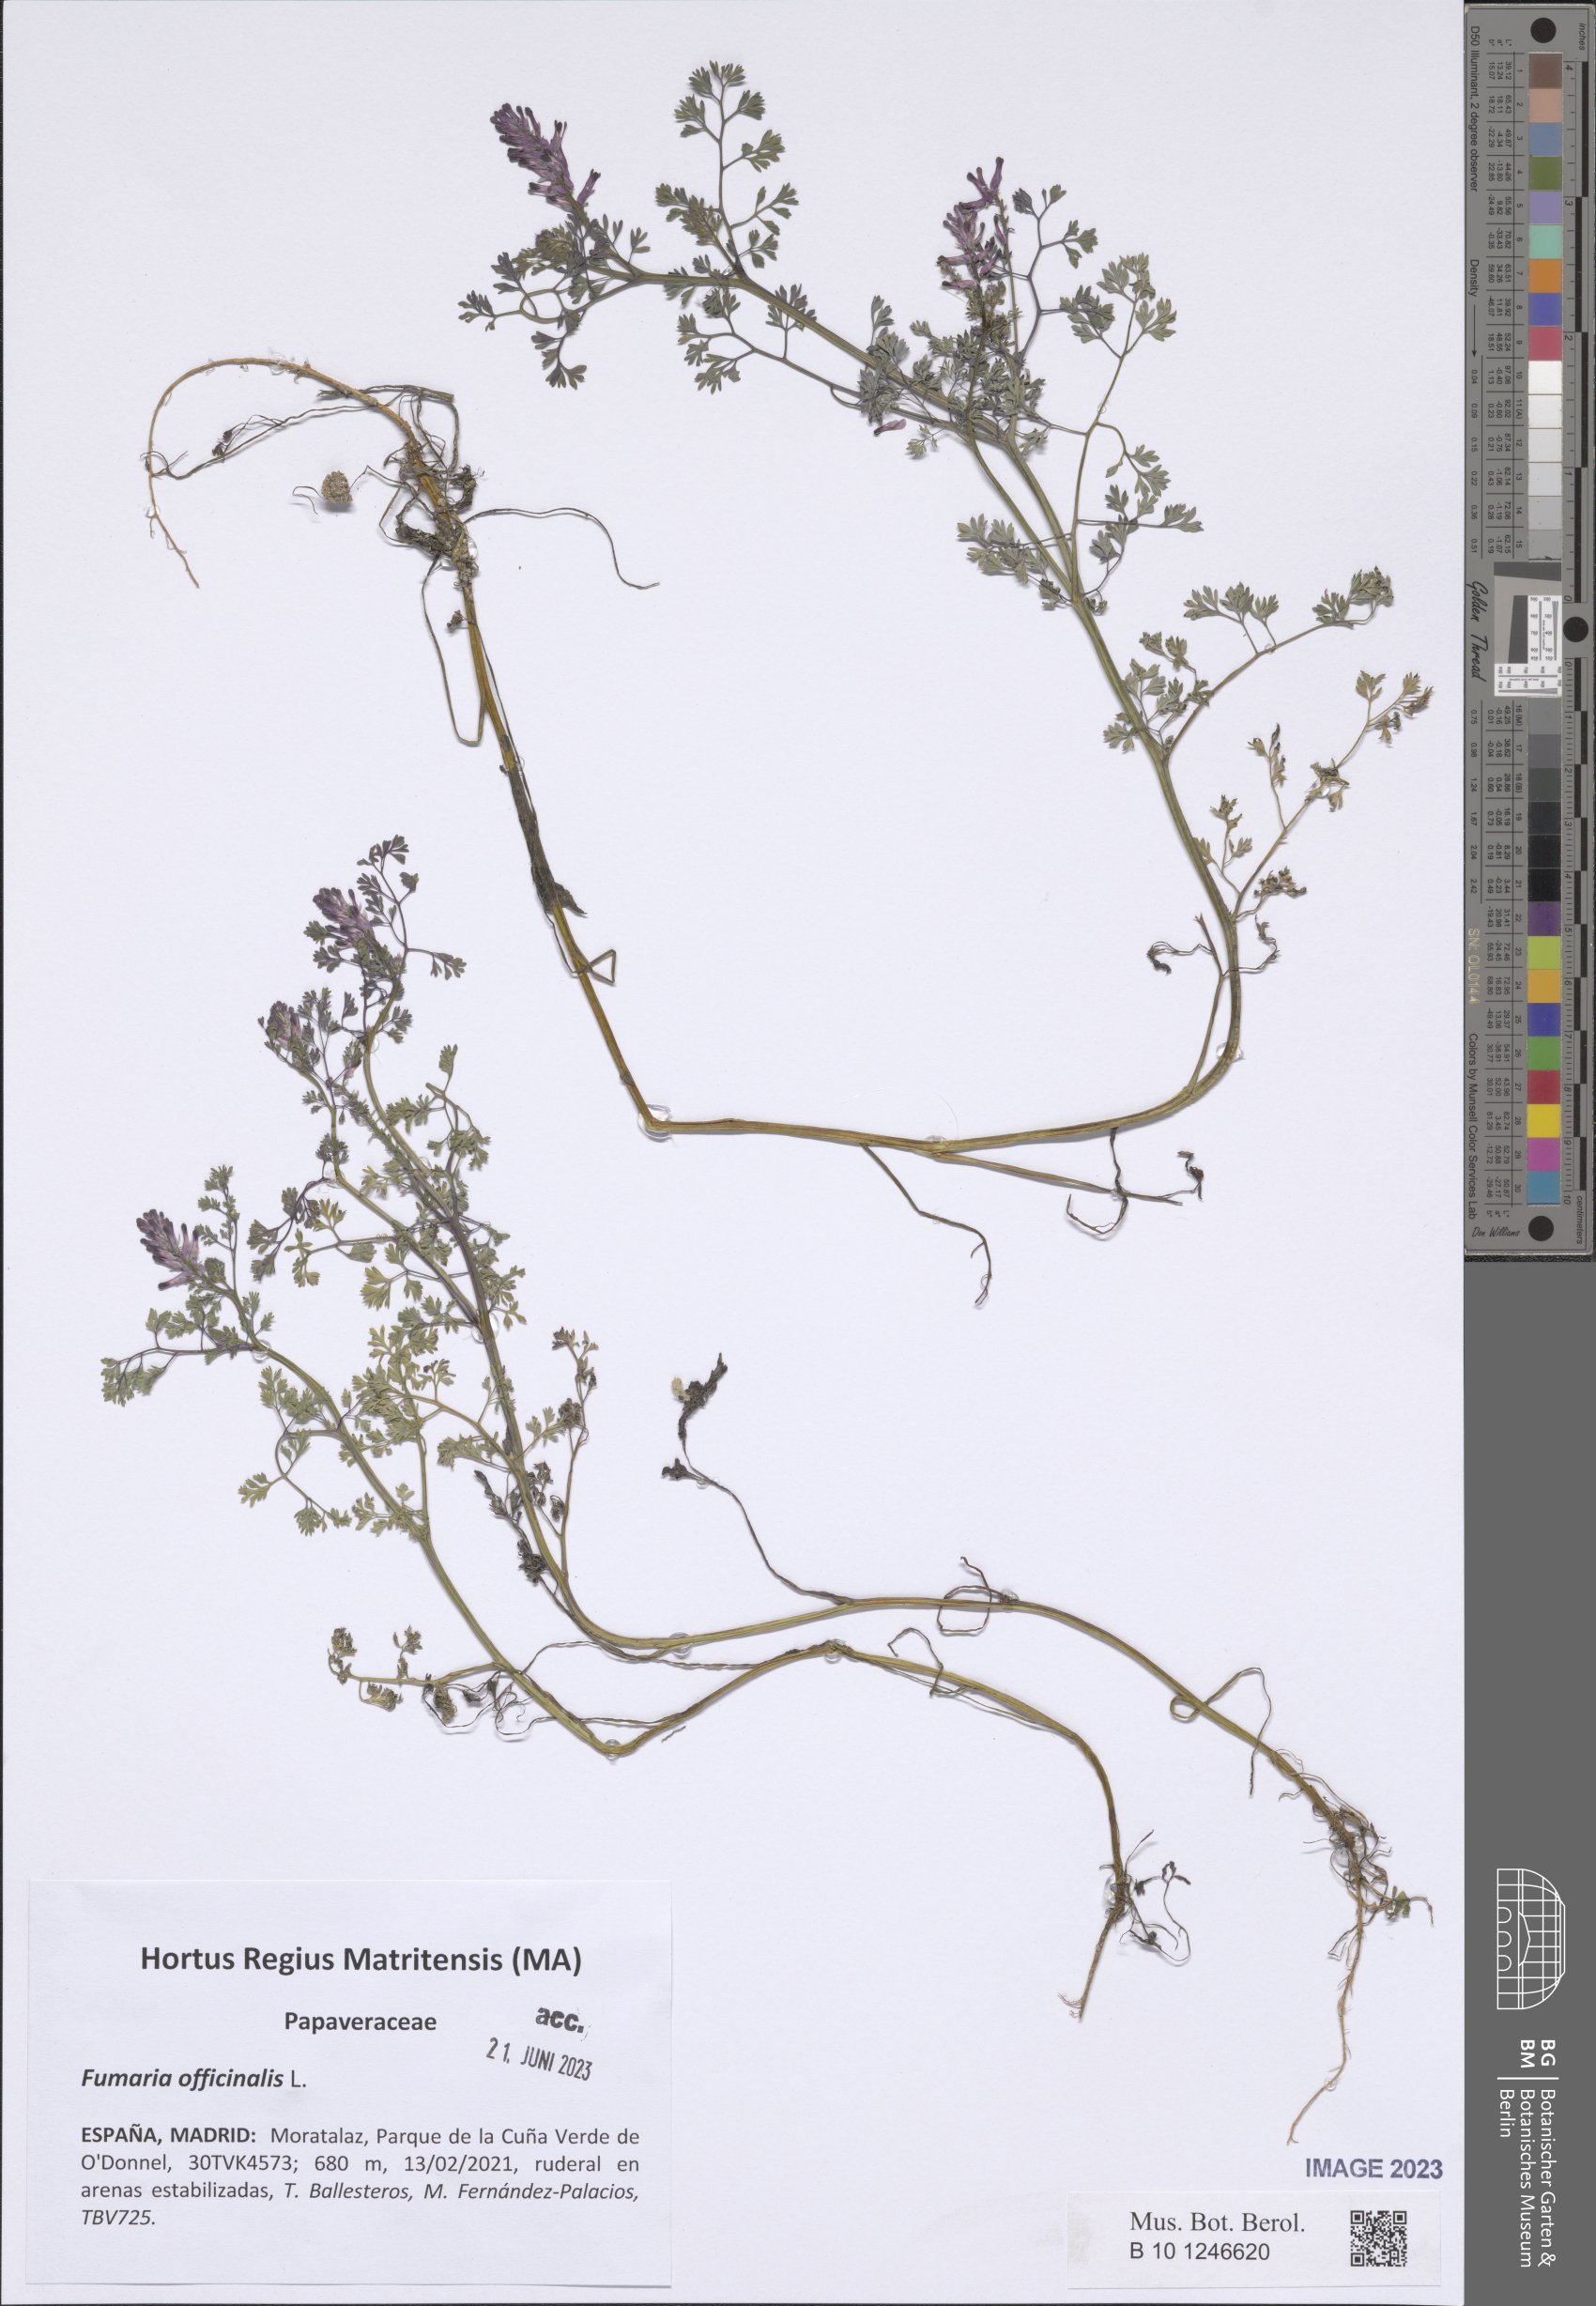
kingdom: Plantae
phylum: Tracheophyta
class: Magnoliopsida
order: Ranunculales
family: Papaveraceae
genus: Fumaria
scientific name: Fumaria officinalis
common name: Common fumitory
